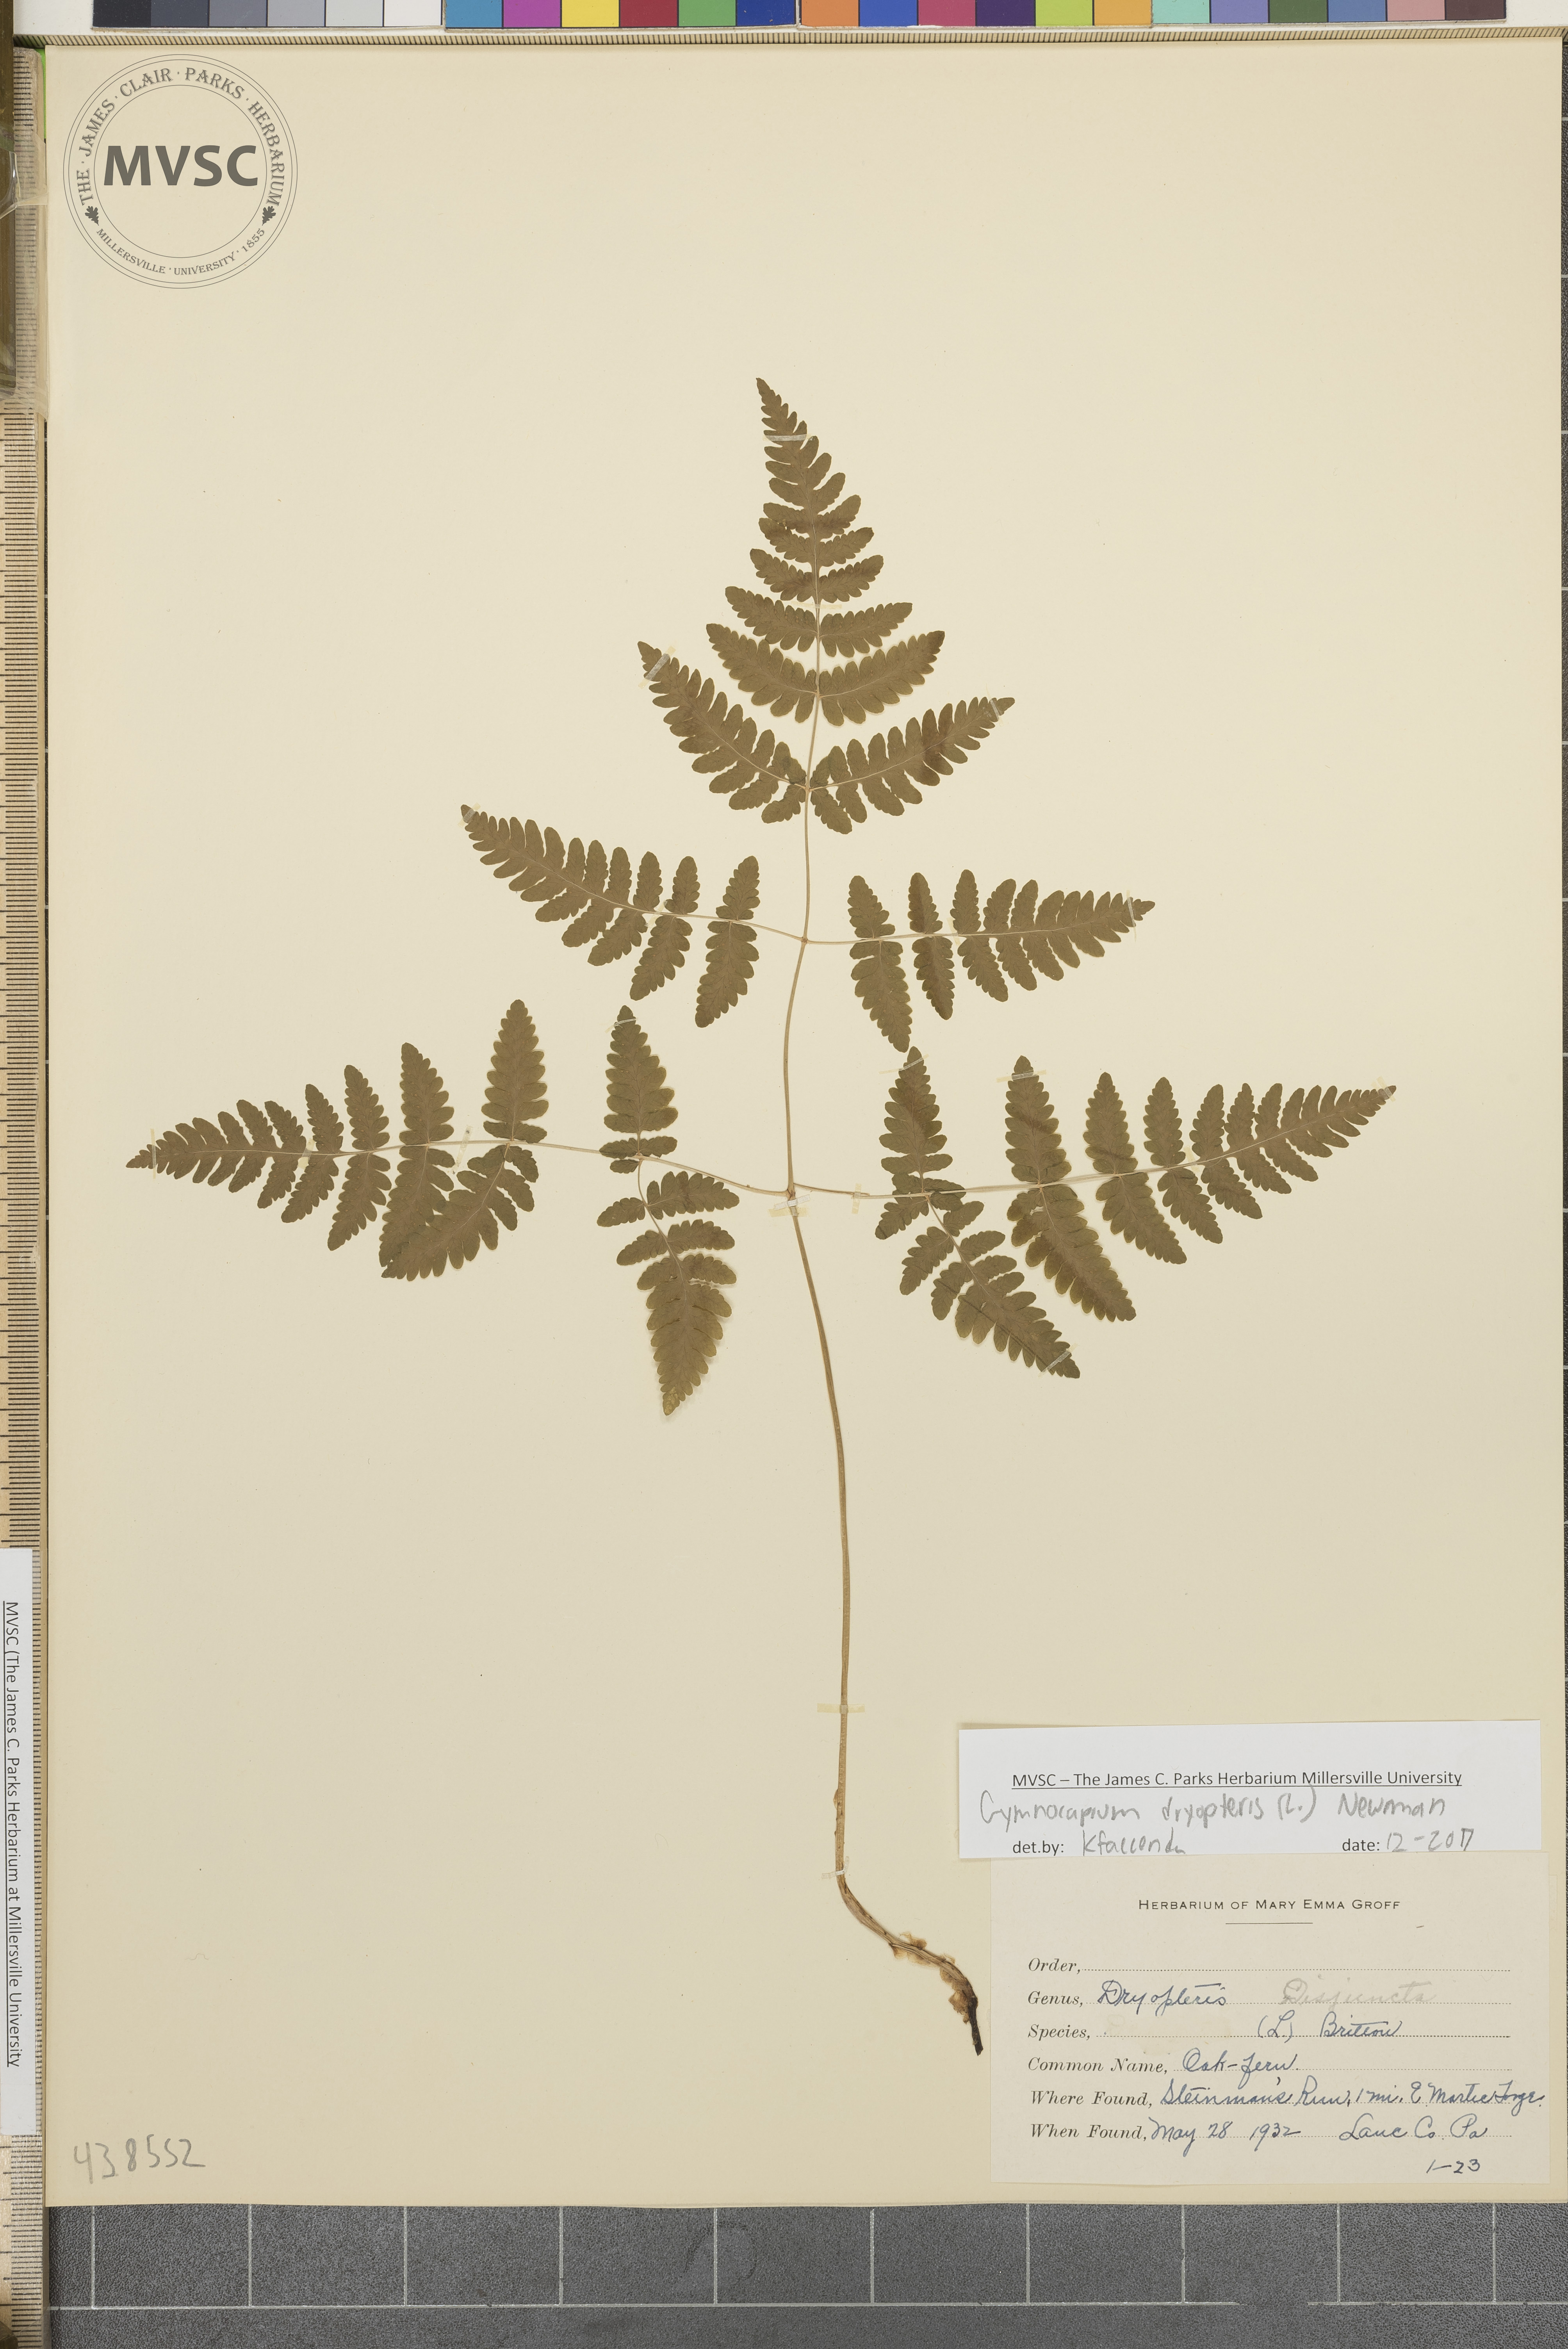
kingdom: Plantae
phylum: Tracheophyta
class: Polypodiopsida
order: Polypodiales
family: Cystopteridaceae
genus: Gymnocarpium
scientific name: Gymnocarpium dryopteris
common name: Oak fern
